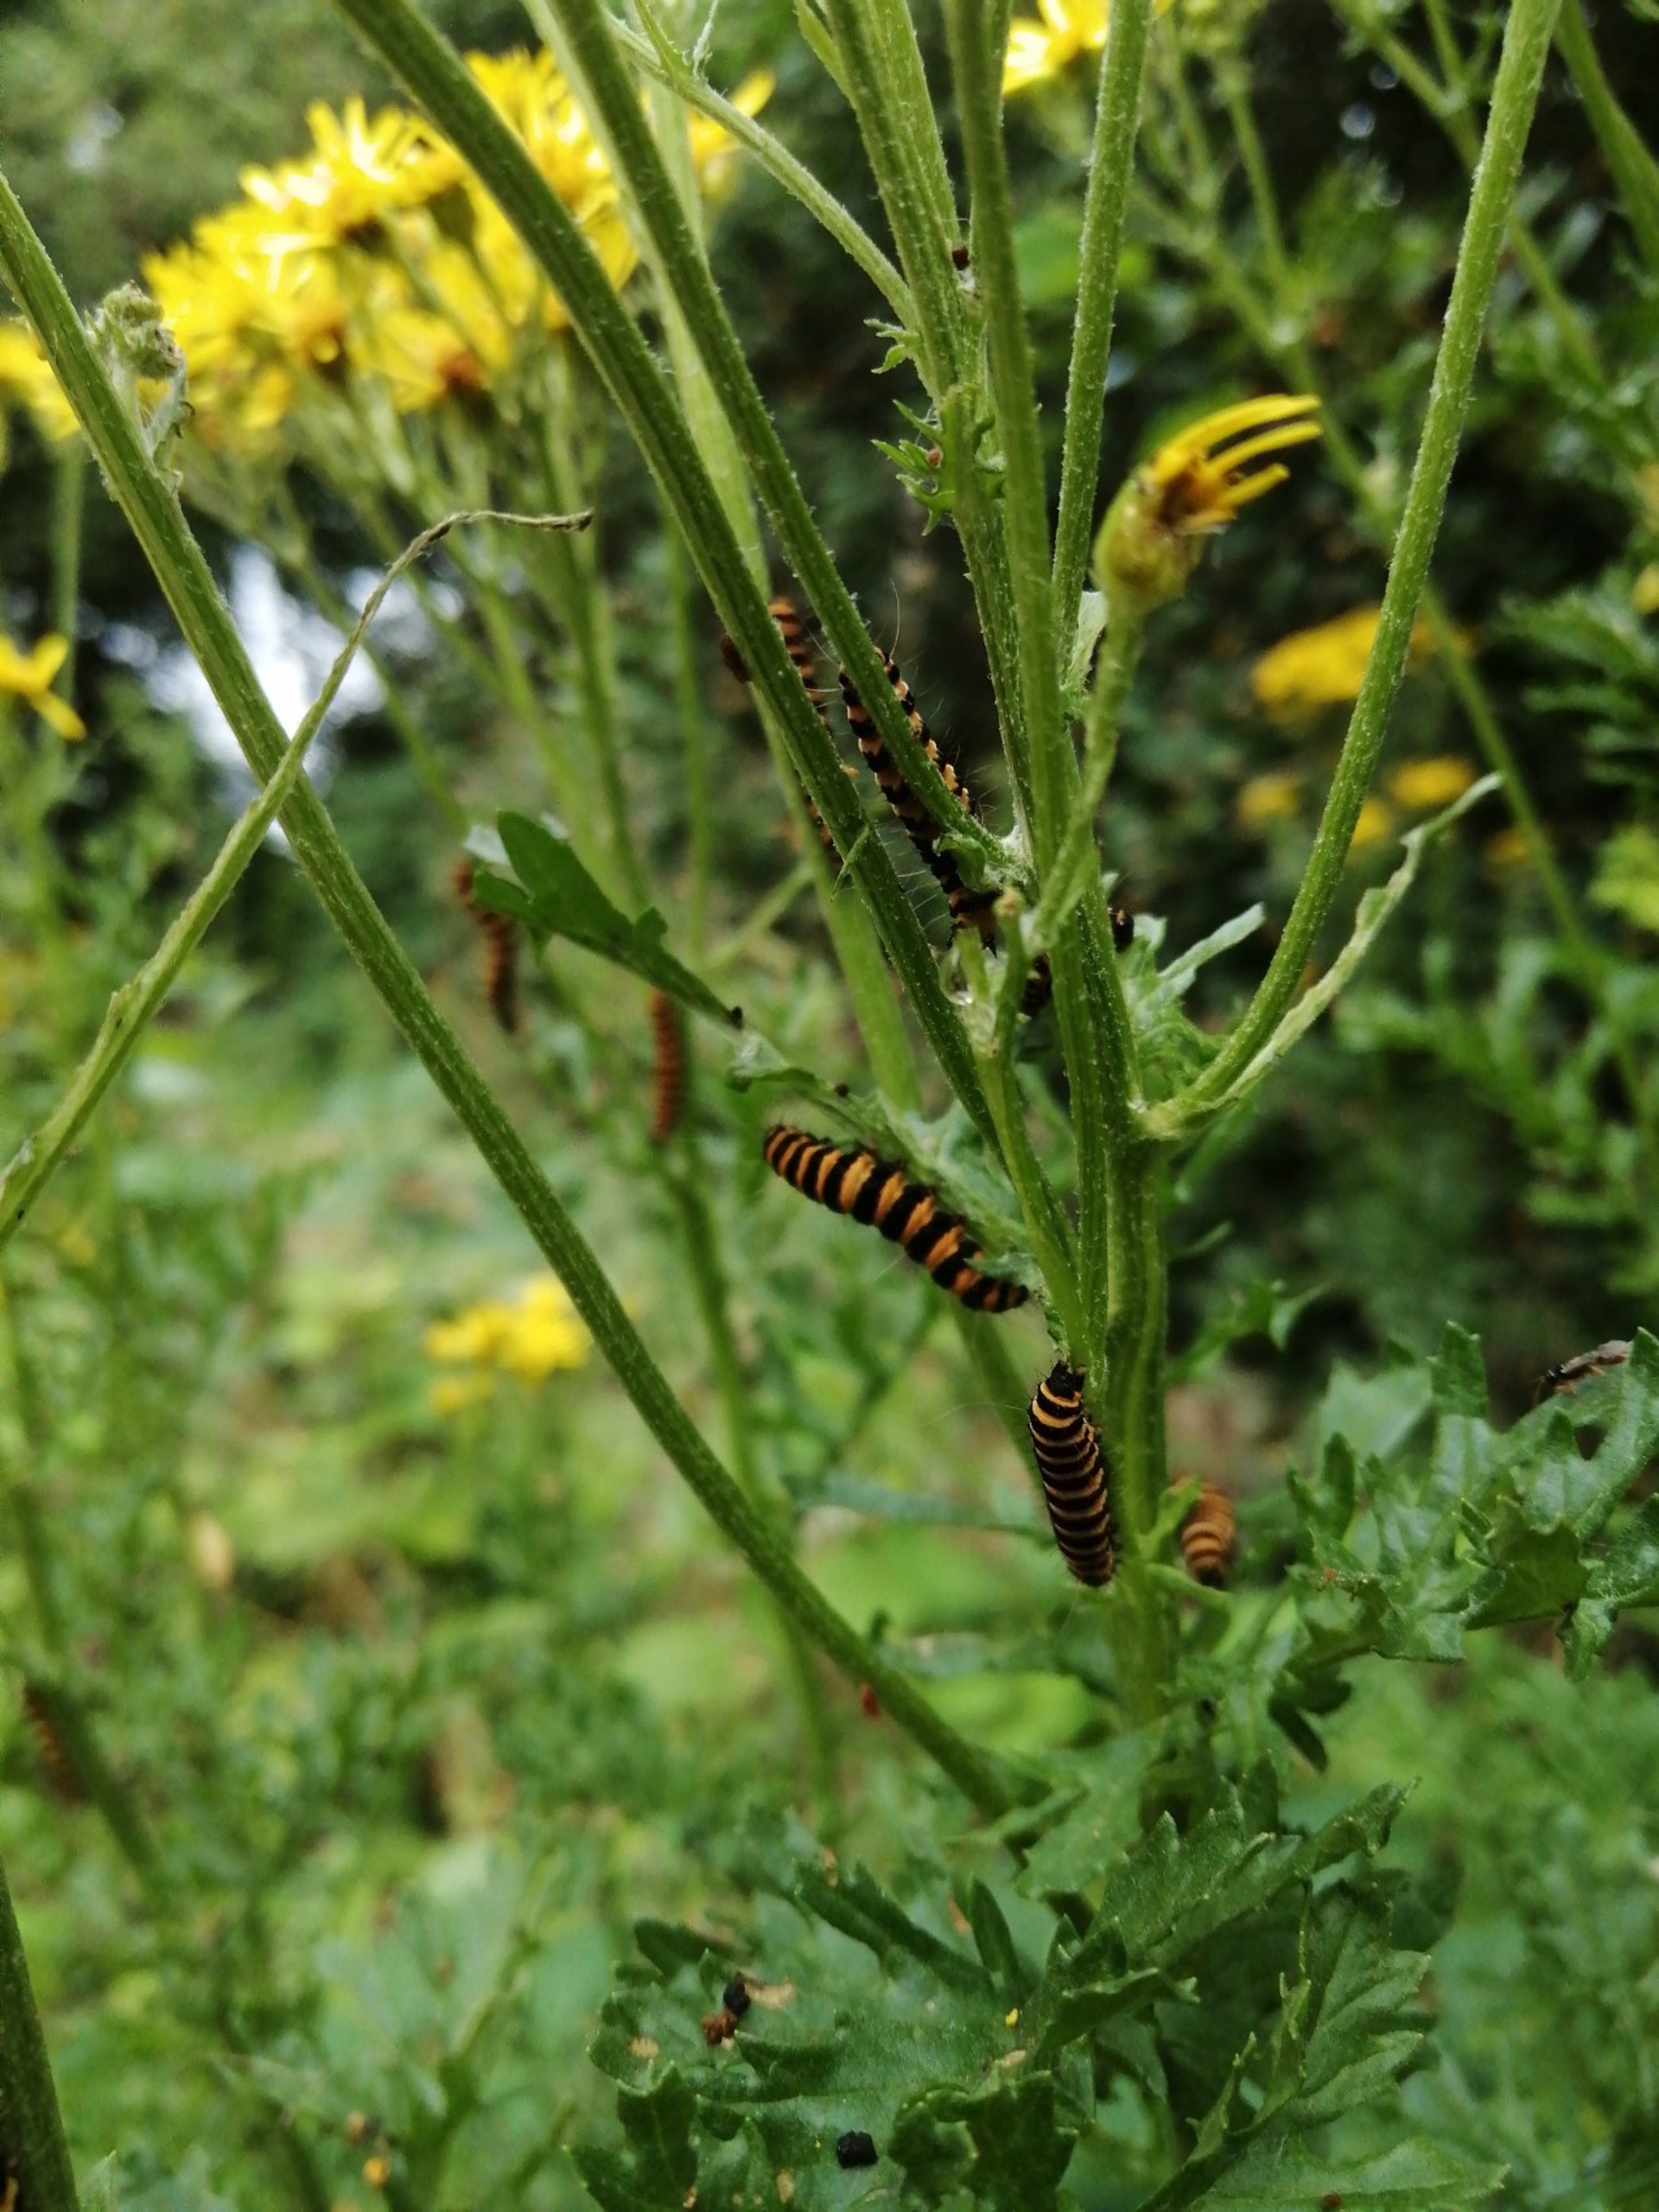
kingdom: Animalia
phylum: Arthropoda
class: Insecta
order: Lepidoptera
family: Erebidae
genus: Tyria
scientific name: Tyria jacobaeae
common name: Blodplet
